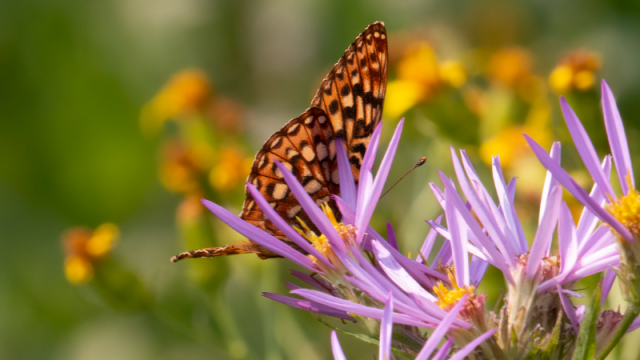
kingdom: Animalia
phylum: Arthropoda
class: Insecta
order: Lepidoptera
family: Nymphalidae
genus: Speyeria
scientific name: Speyeria hydaspe
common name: Hydaspe Fritillary
